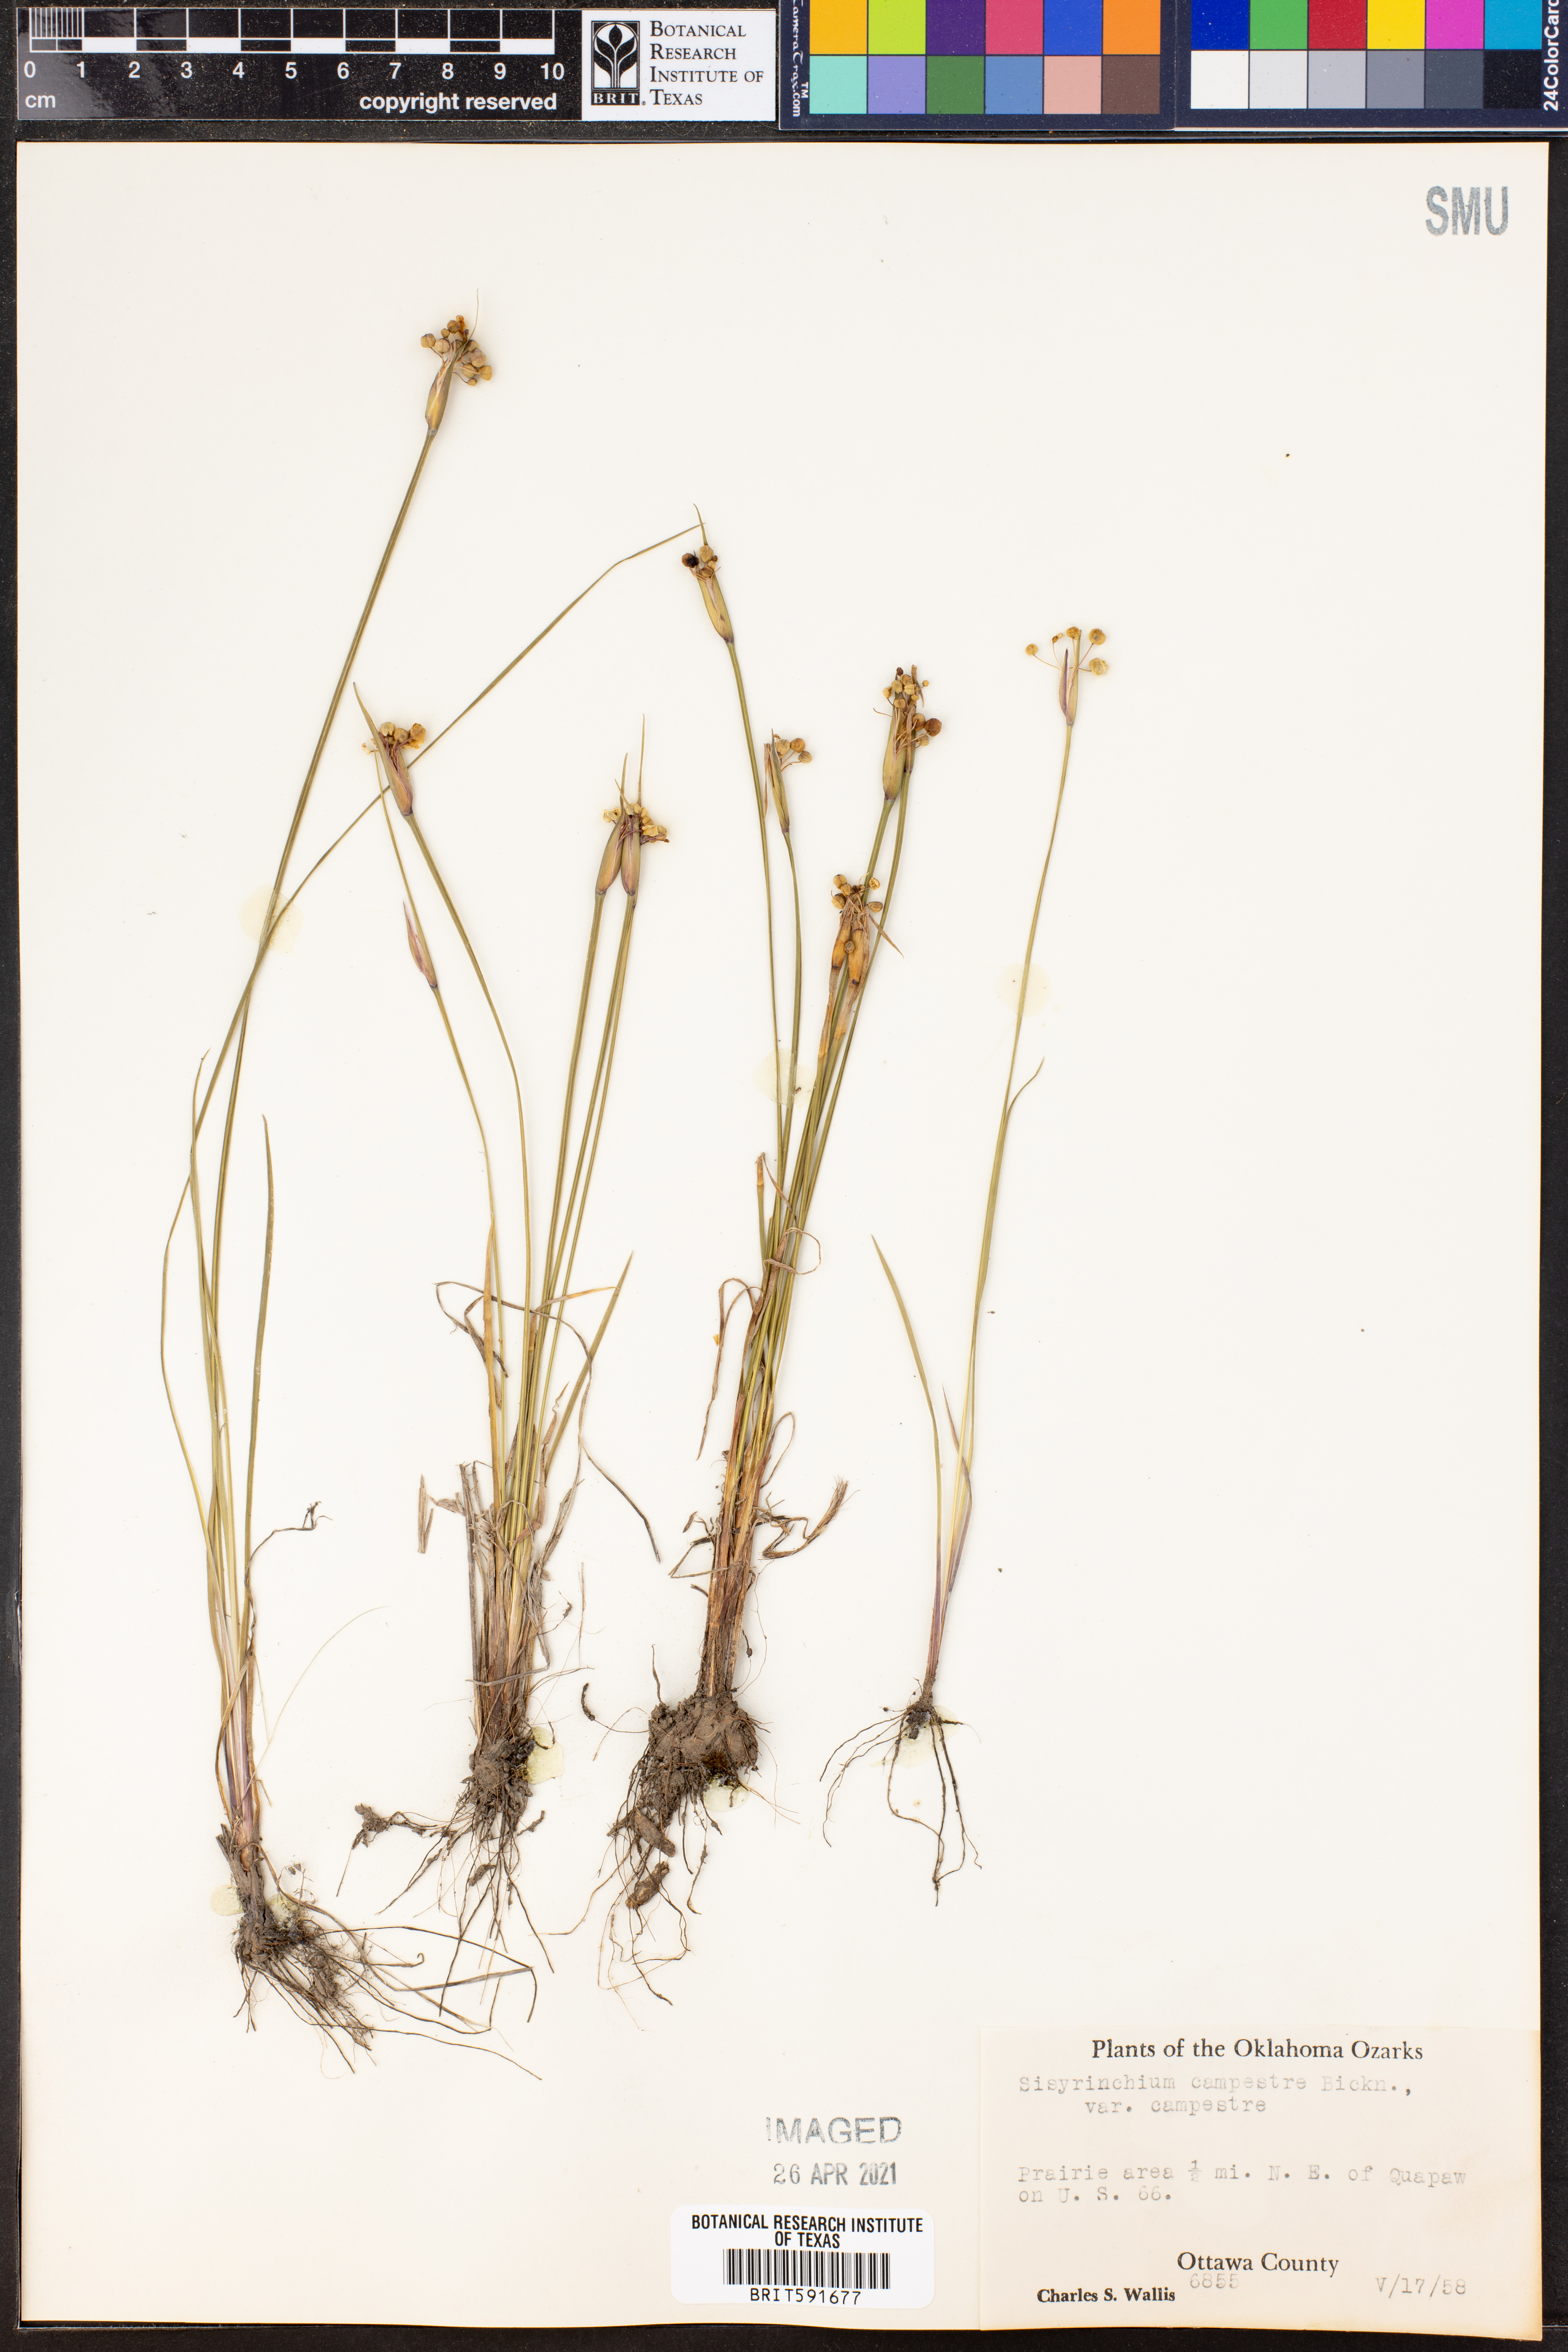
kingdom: Plantae
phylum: Tracheophyta
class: Liliopsida
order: Asparagales
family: Iridaceae
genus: Sisyrinchium
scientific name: Sisyrinchium campestre
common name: Prairie blue-eyed-grass
